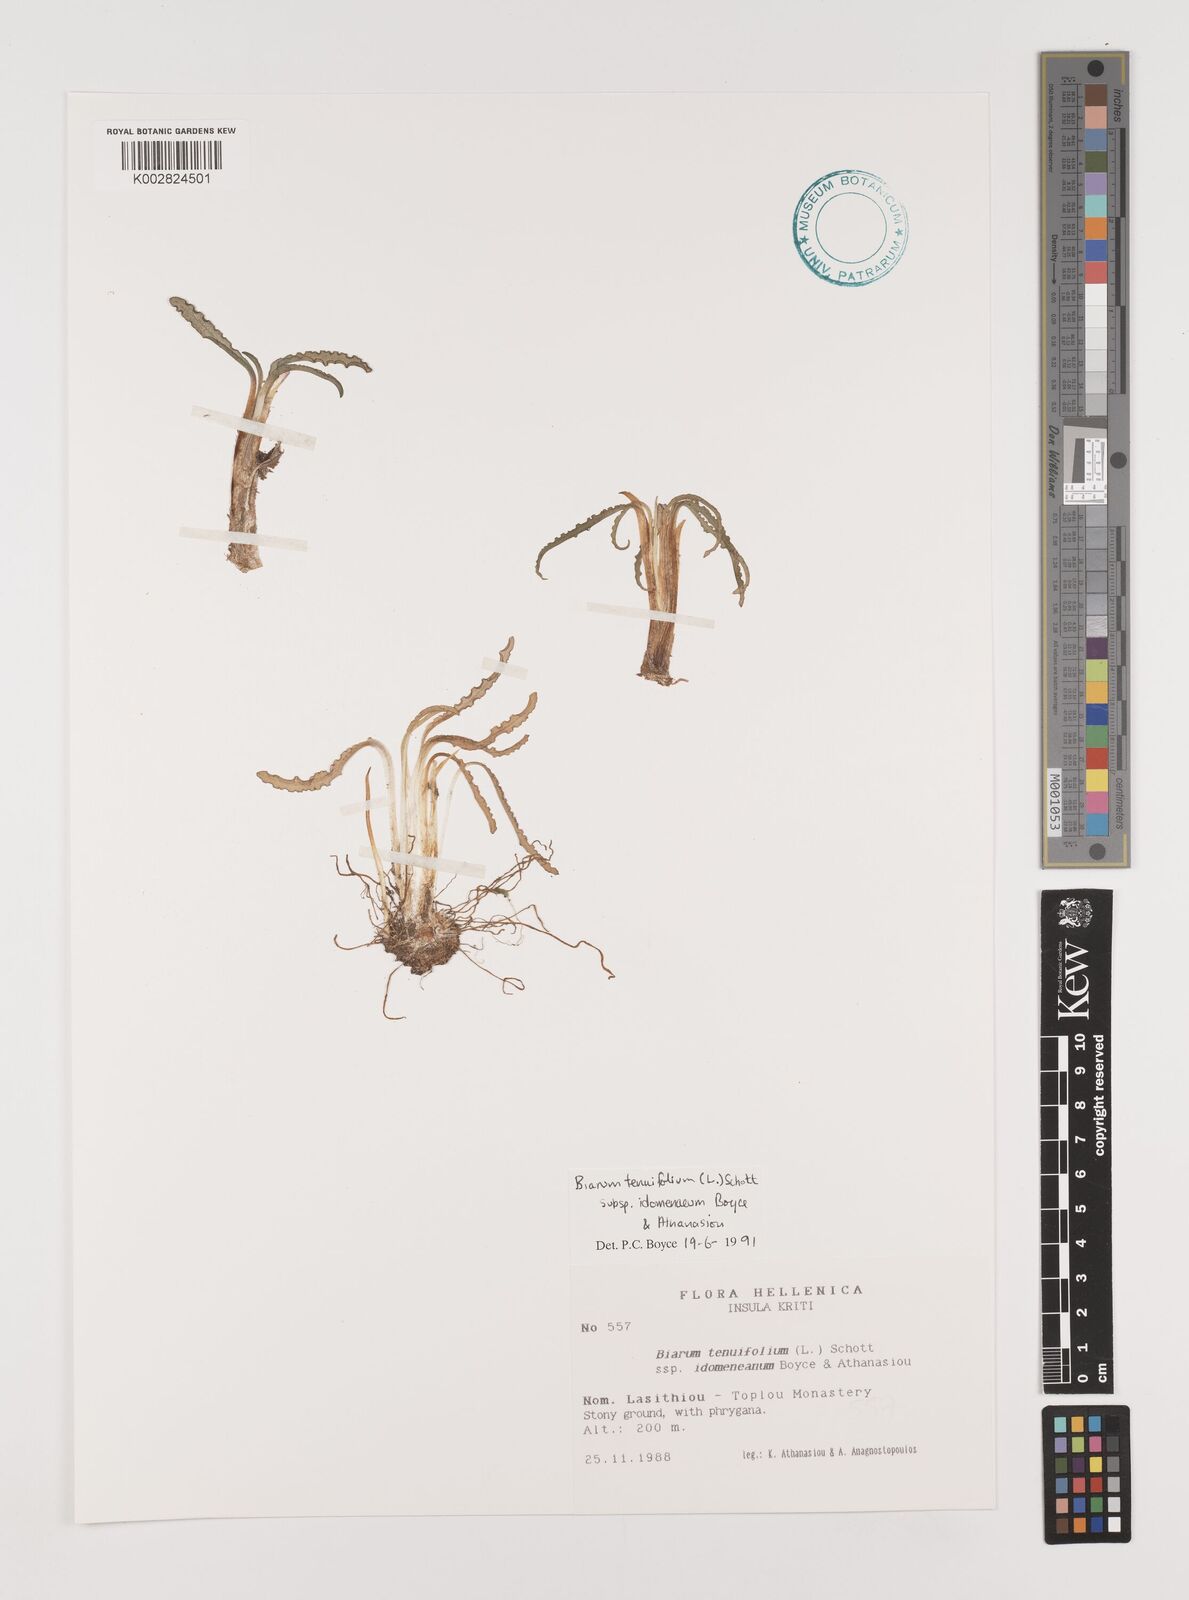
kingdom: Plantae
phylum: Tracheophyta
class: Liliopsida
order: Alismatales
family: Araceae
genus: Biarum
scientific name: Biarum tenuifolium
